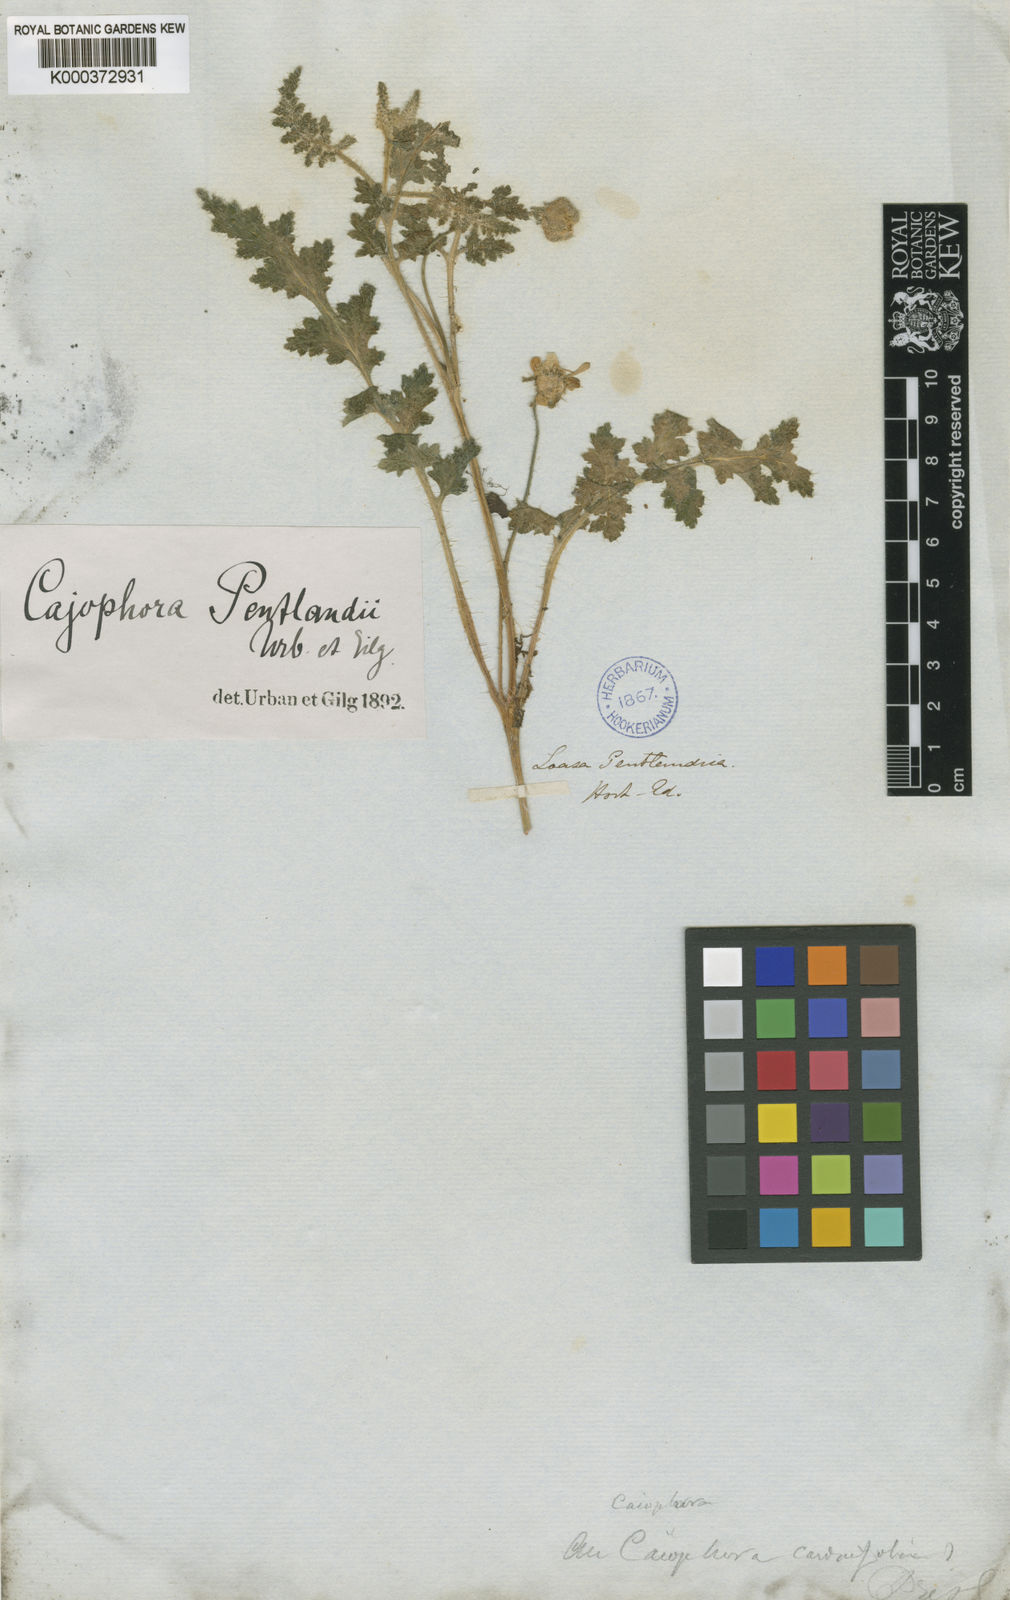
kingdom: Plantae
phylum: Tracheophyta
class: Magnoliopsida
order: Cornales
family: Loasaceae
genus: Caiophora
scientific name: Caiophora
